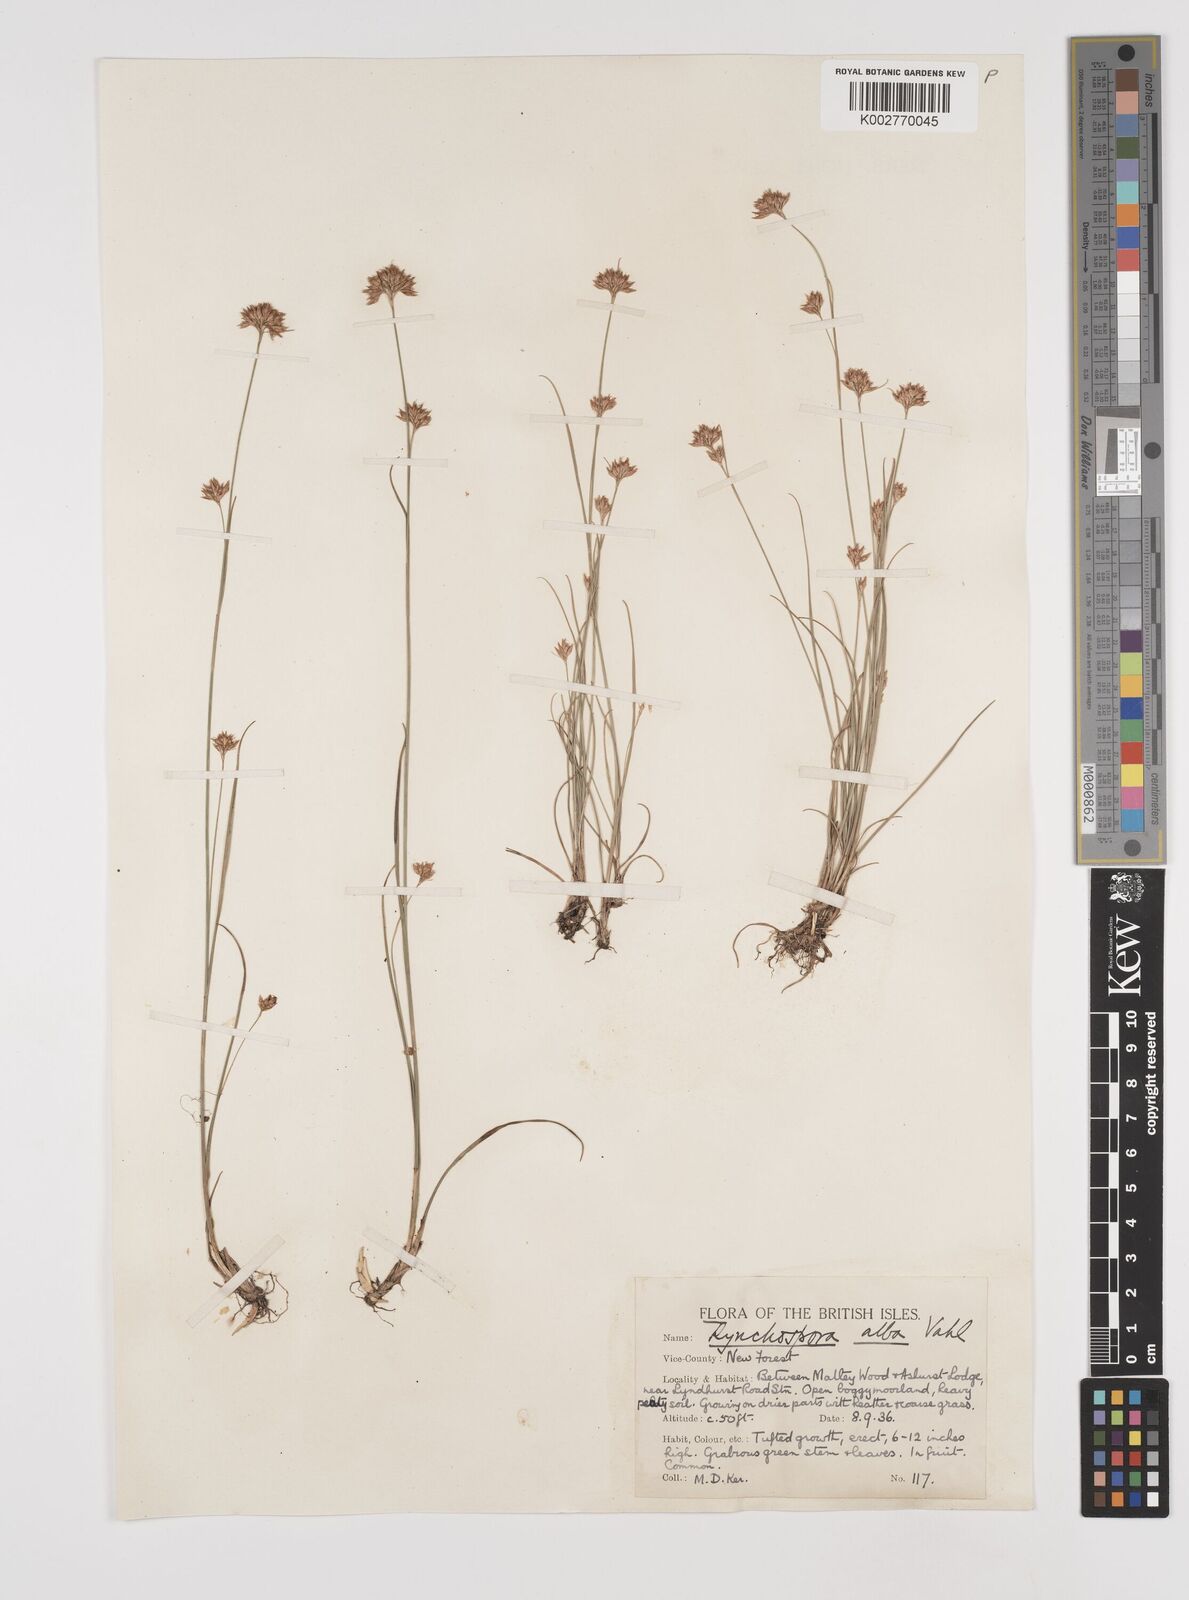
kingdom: Plantae
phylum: Tracheophyta
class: Liliopsida
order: Poales
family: Cyperaceae
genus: Rhynchospora
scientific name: Rhynchospora alba
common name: White beak-sedge
